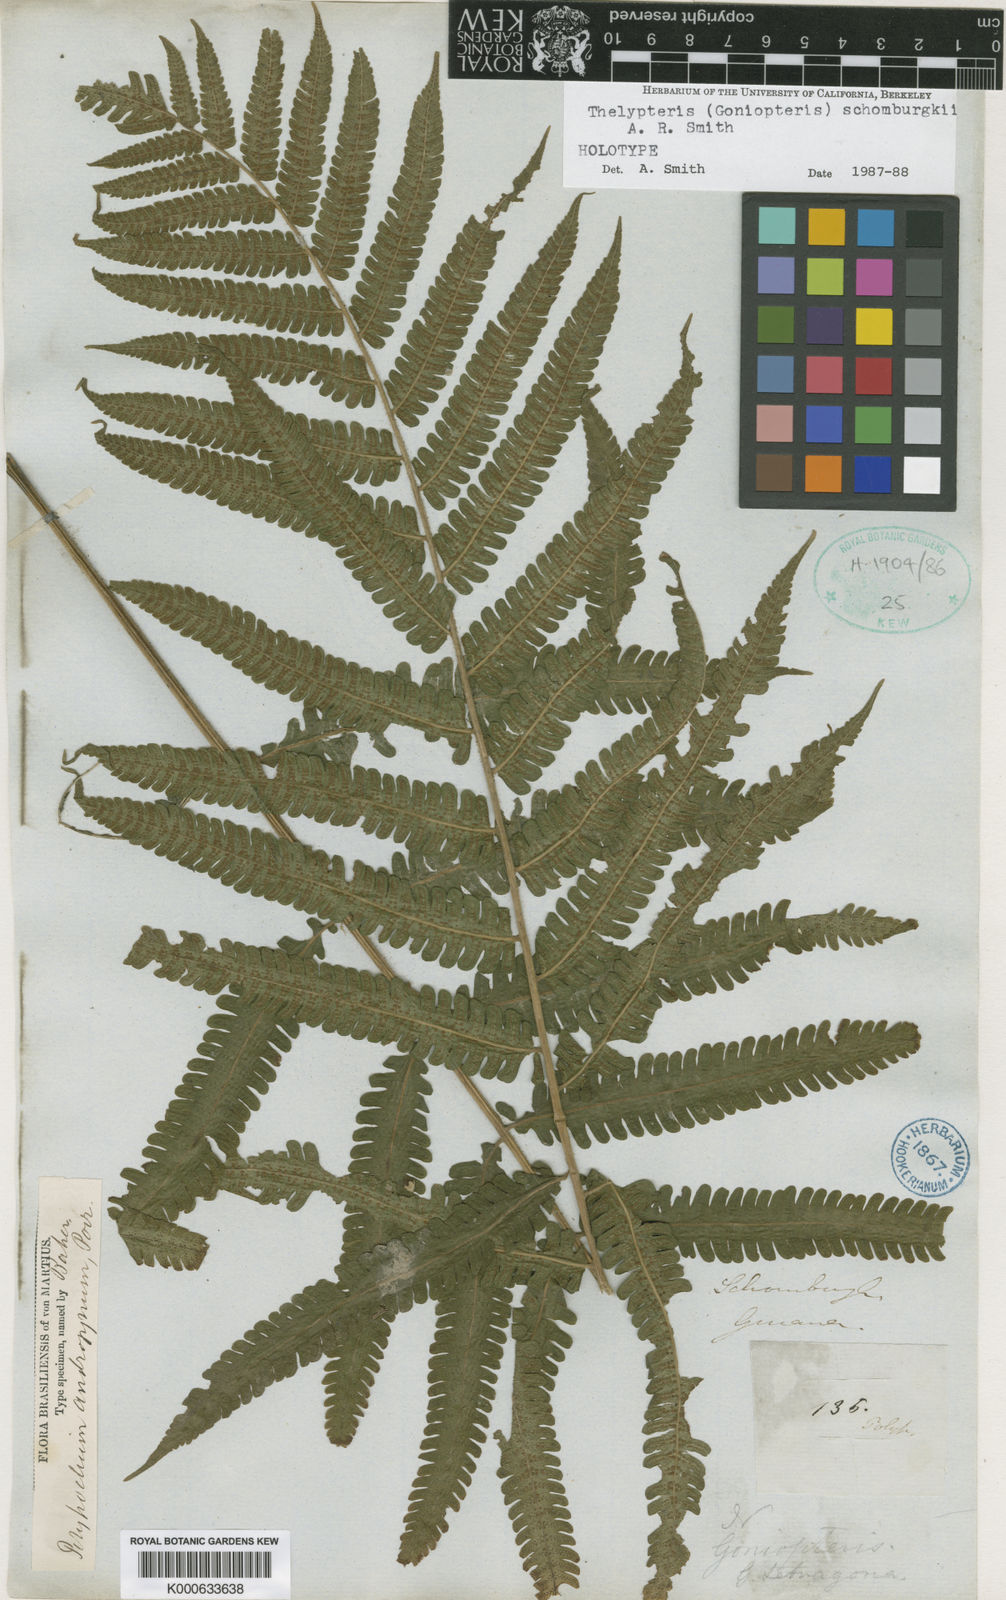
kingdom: Plantae
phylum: Tracheophyta
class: Polypodiopsida
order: Polypodiales
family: Thelypteridaceae
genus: Goniopteris
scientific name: Goniopteris
